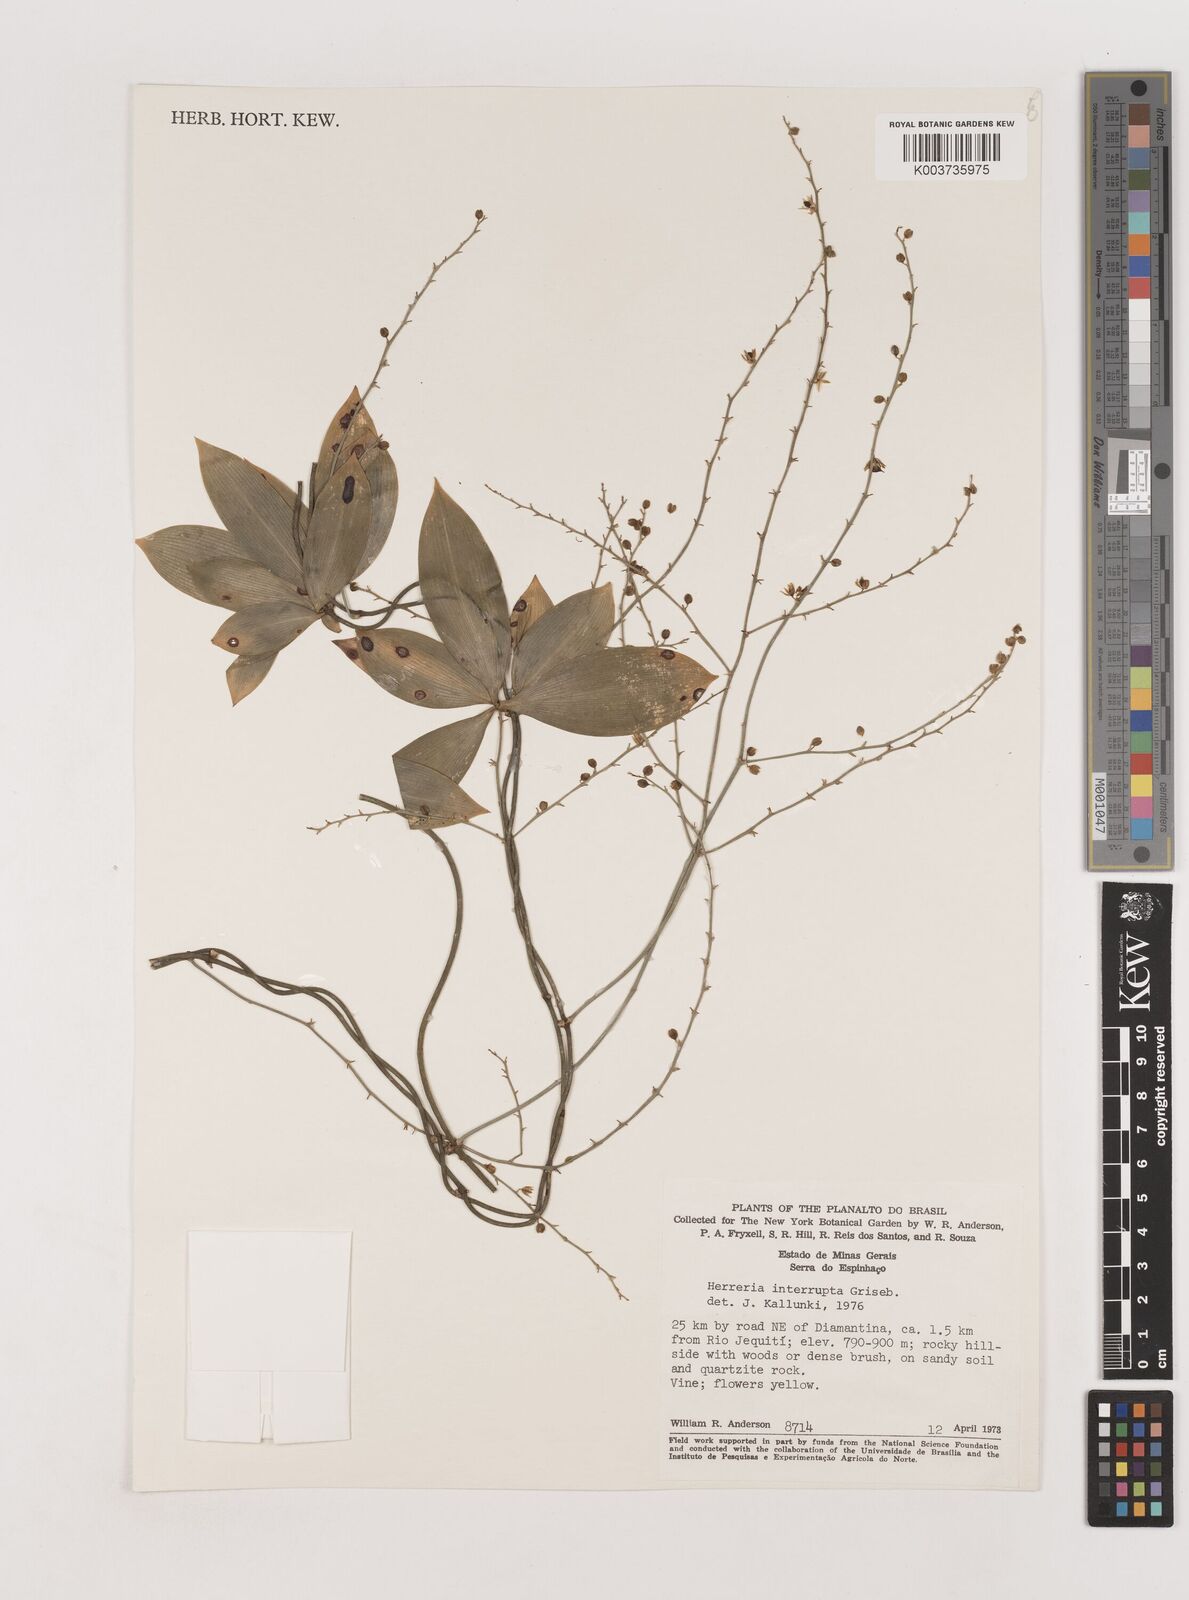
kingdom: Plantae
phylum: Tracheophyta
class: Liliopsida
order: Asparagales
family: Asparagaceae
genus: Herreria
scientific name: Herreria salsaparilha
